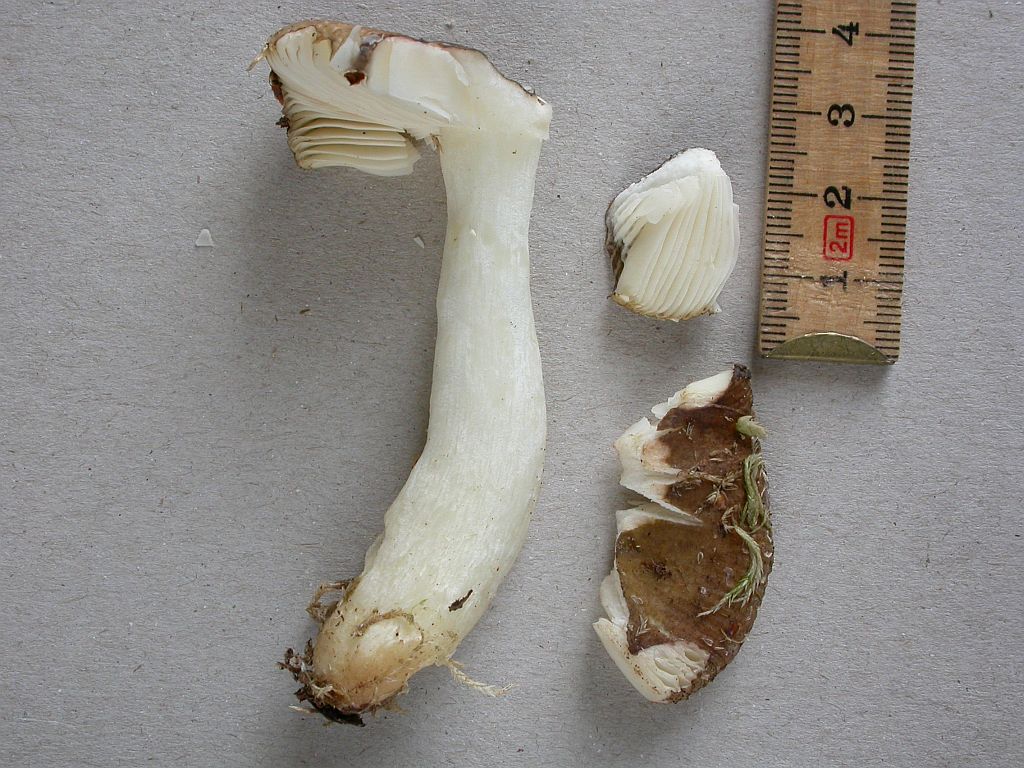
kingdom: Fungi
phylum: Basidiomycota
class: Agaricomycetes
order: Russulales
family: Russulaceae
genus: Russula
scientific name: Russula robertii
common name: tørvemos-skørhat
